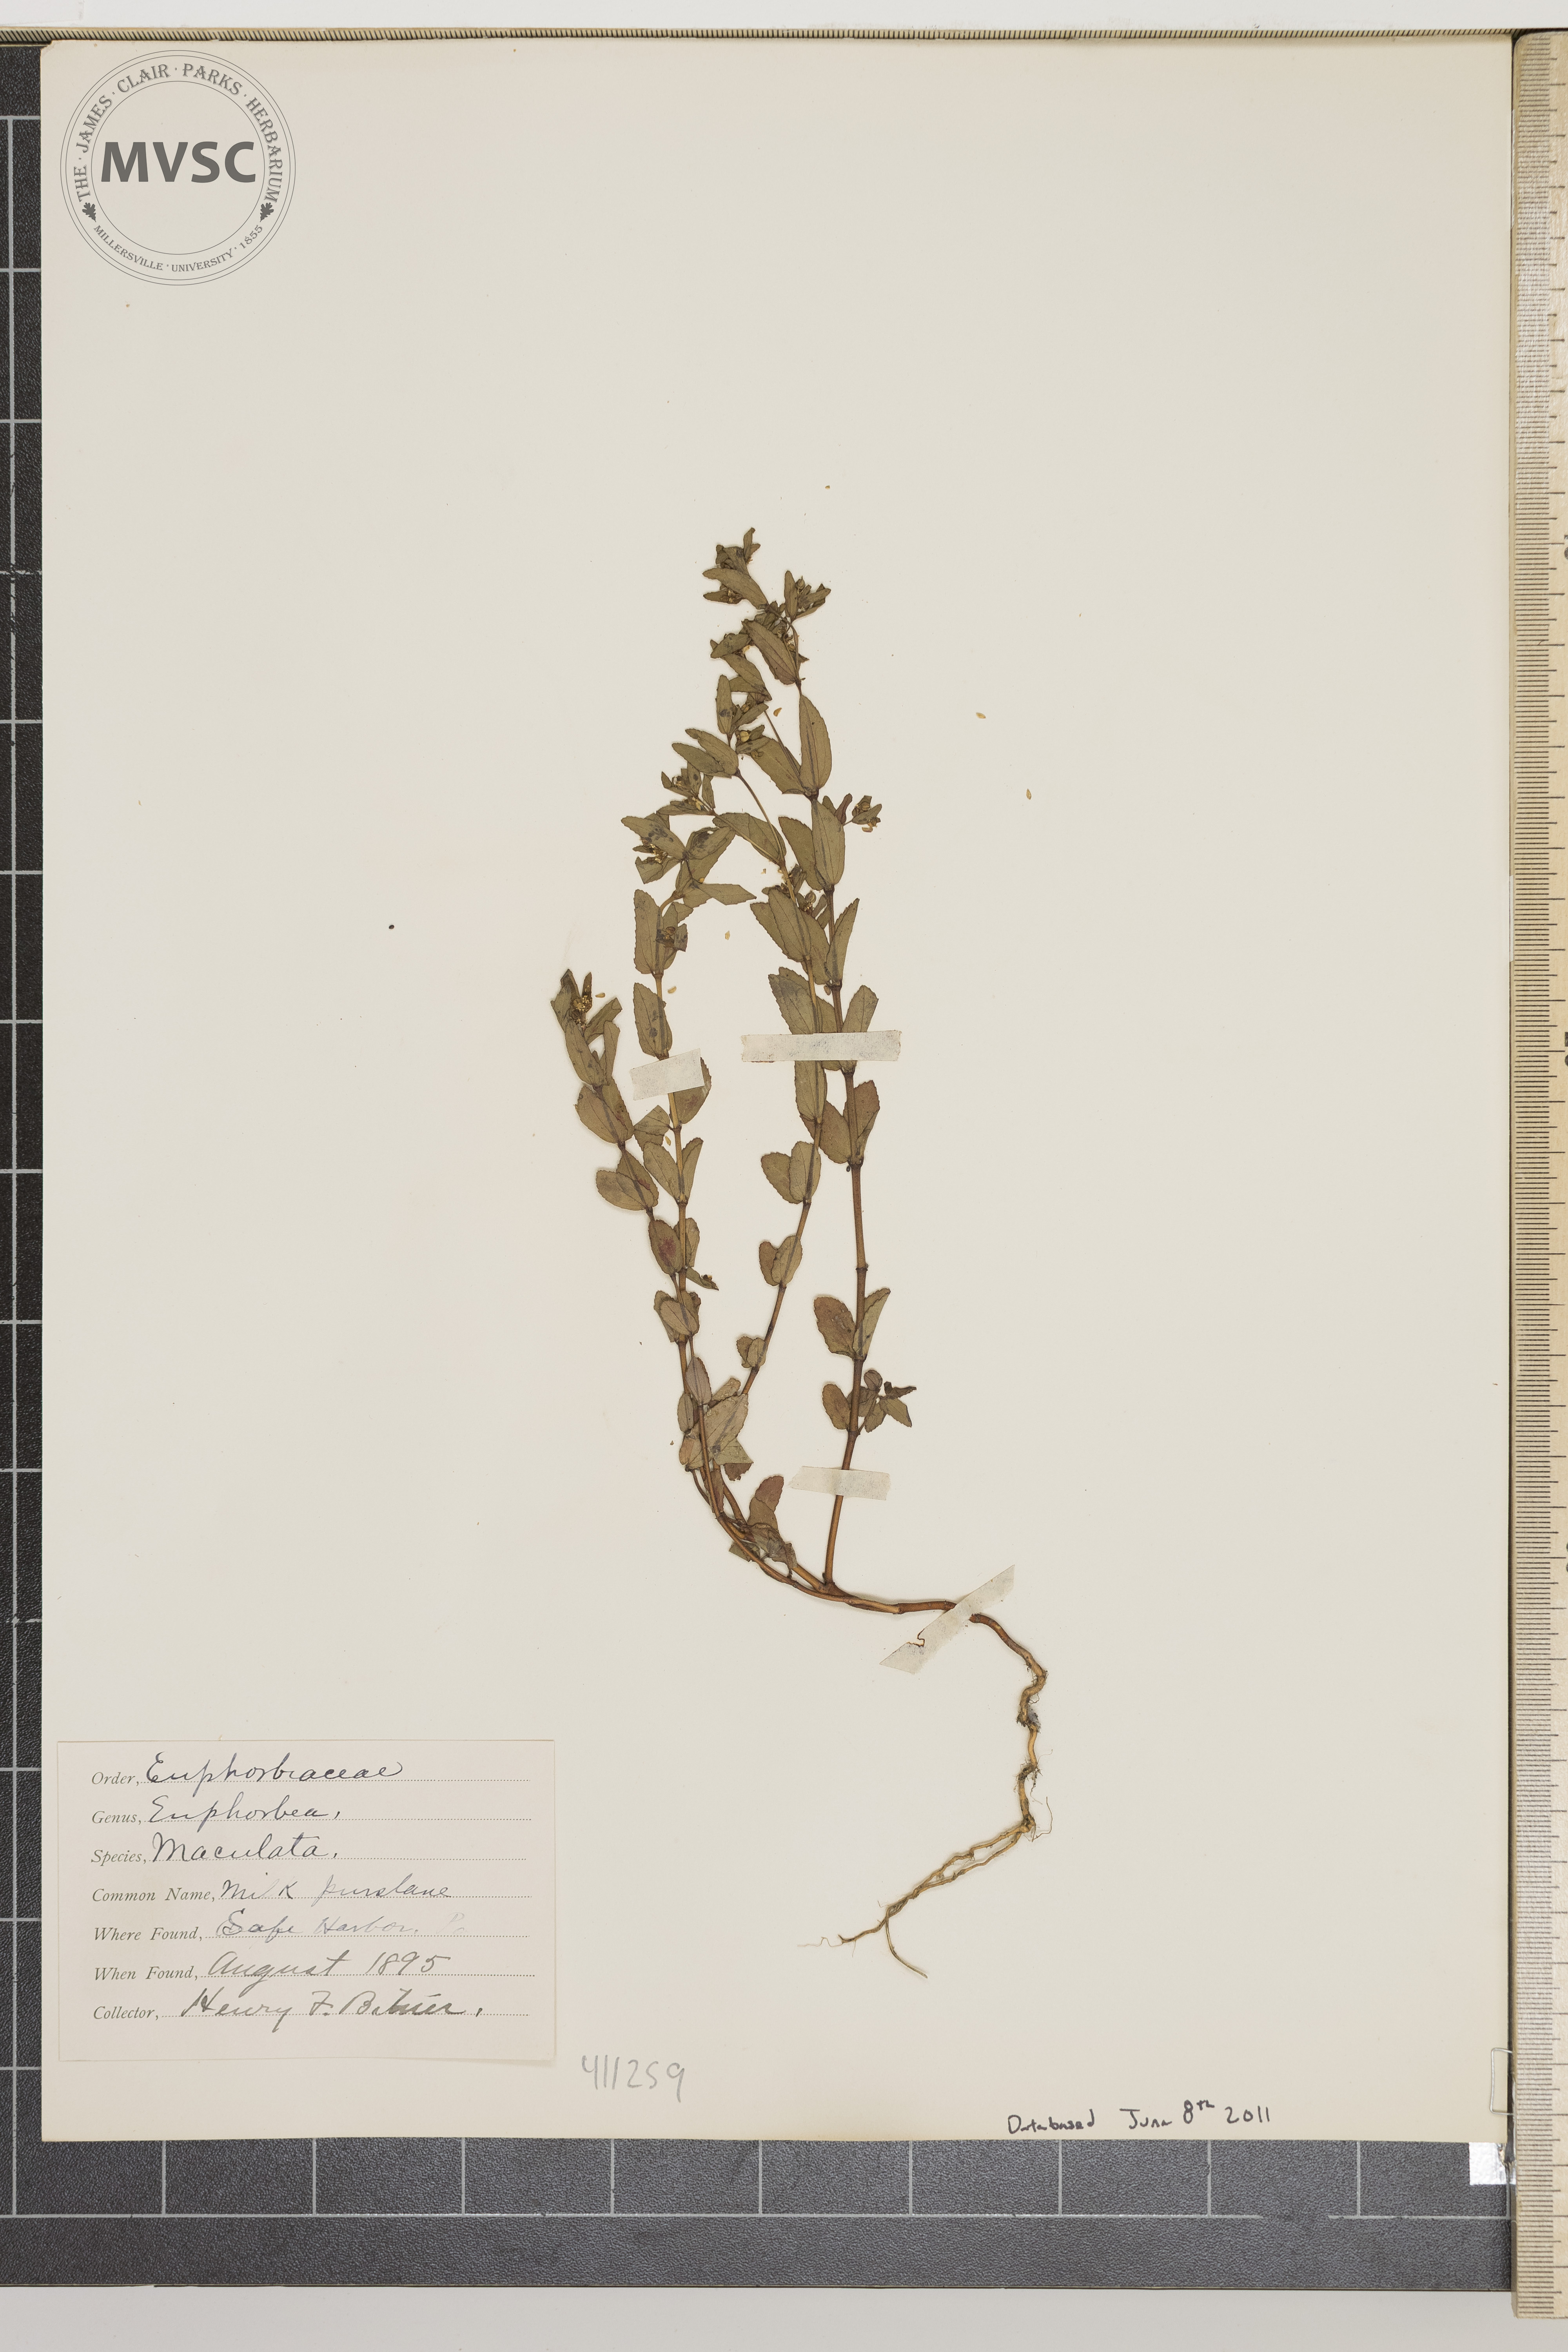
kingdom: Plantae
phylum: Tracheophyta
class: Magnoliopsida
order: Malpighiales
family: Euphorbiaceae
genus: Euphorbia
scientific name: Euphorbia maculata
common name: Spotted spurge
